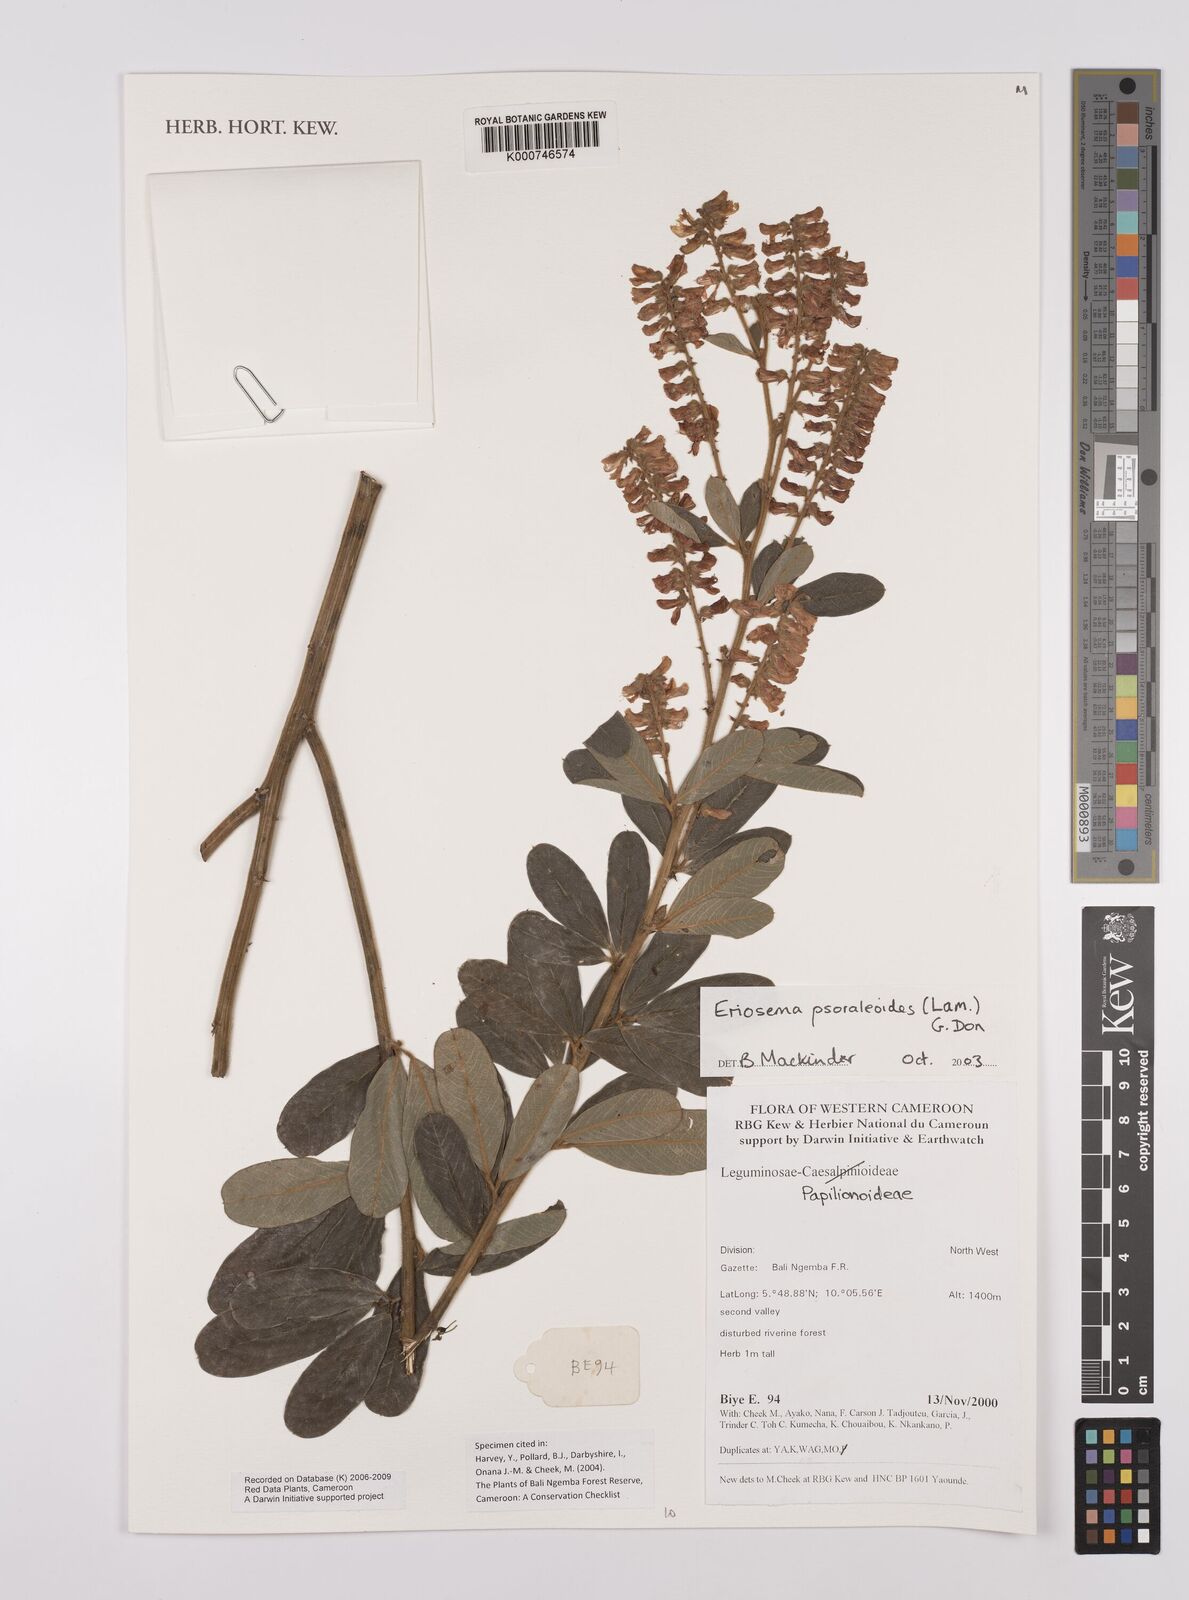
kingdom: Plantae
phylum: Tracheophyta
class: Magnoliopsida
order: Fabales
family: Fabaceae
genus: Eriosema
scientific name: Eriosema psoraleoides
